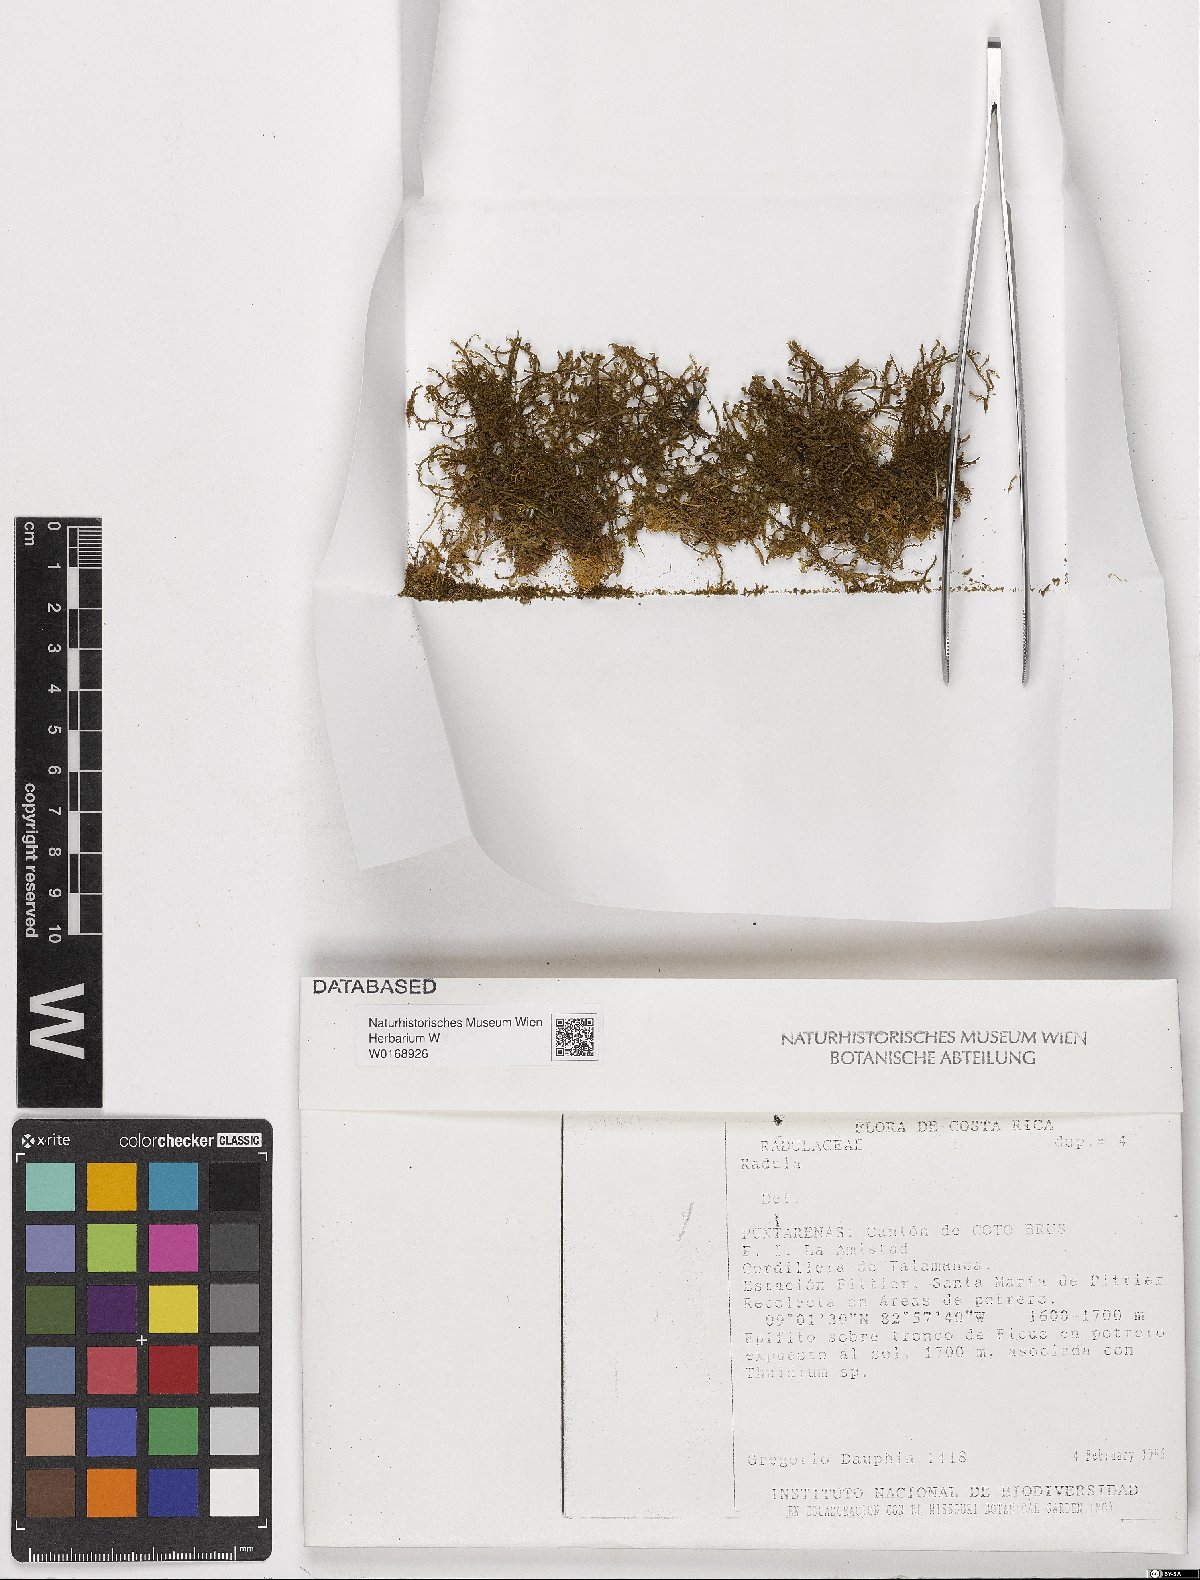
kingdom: Plantae
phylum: Marchantiophyta
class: Jungermanniopsida
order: Porellales
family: Radulaceae
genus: Radula
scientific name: Radula
